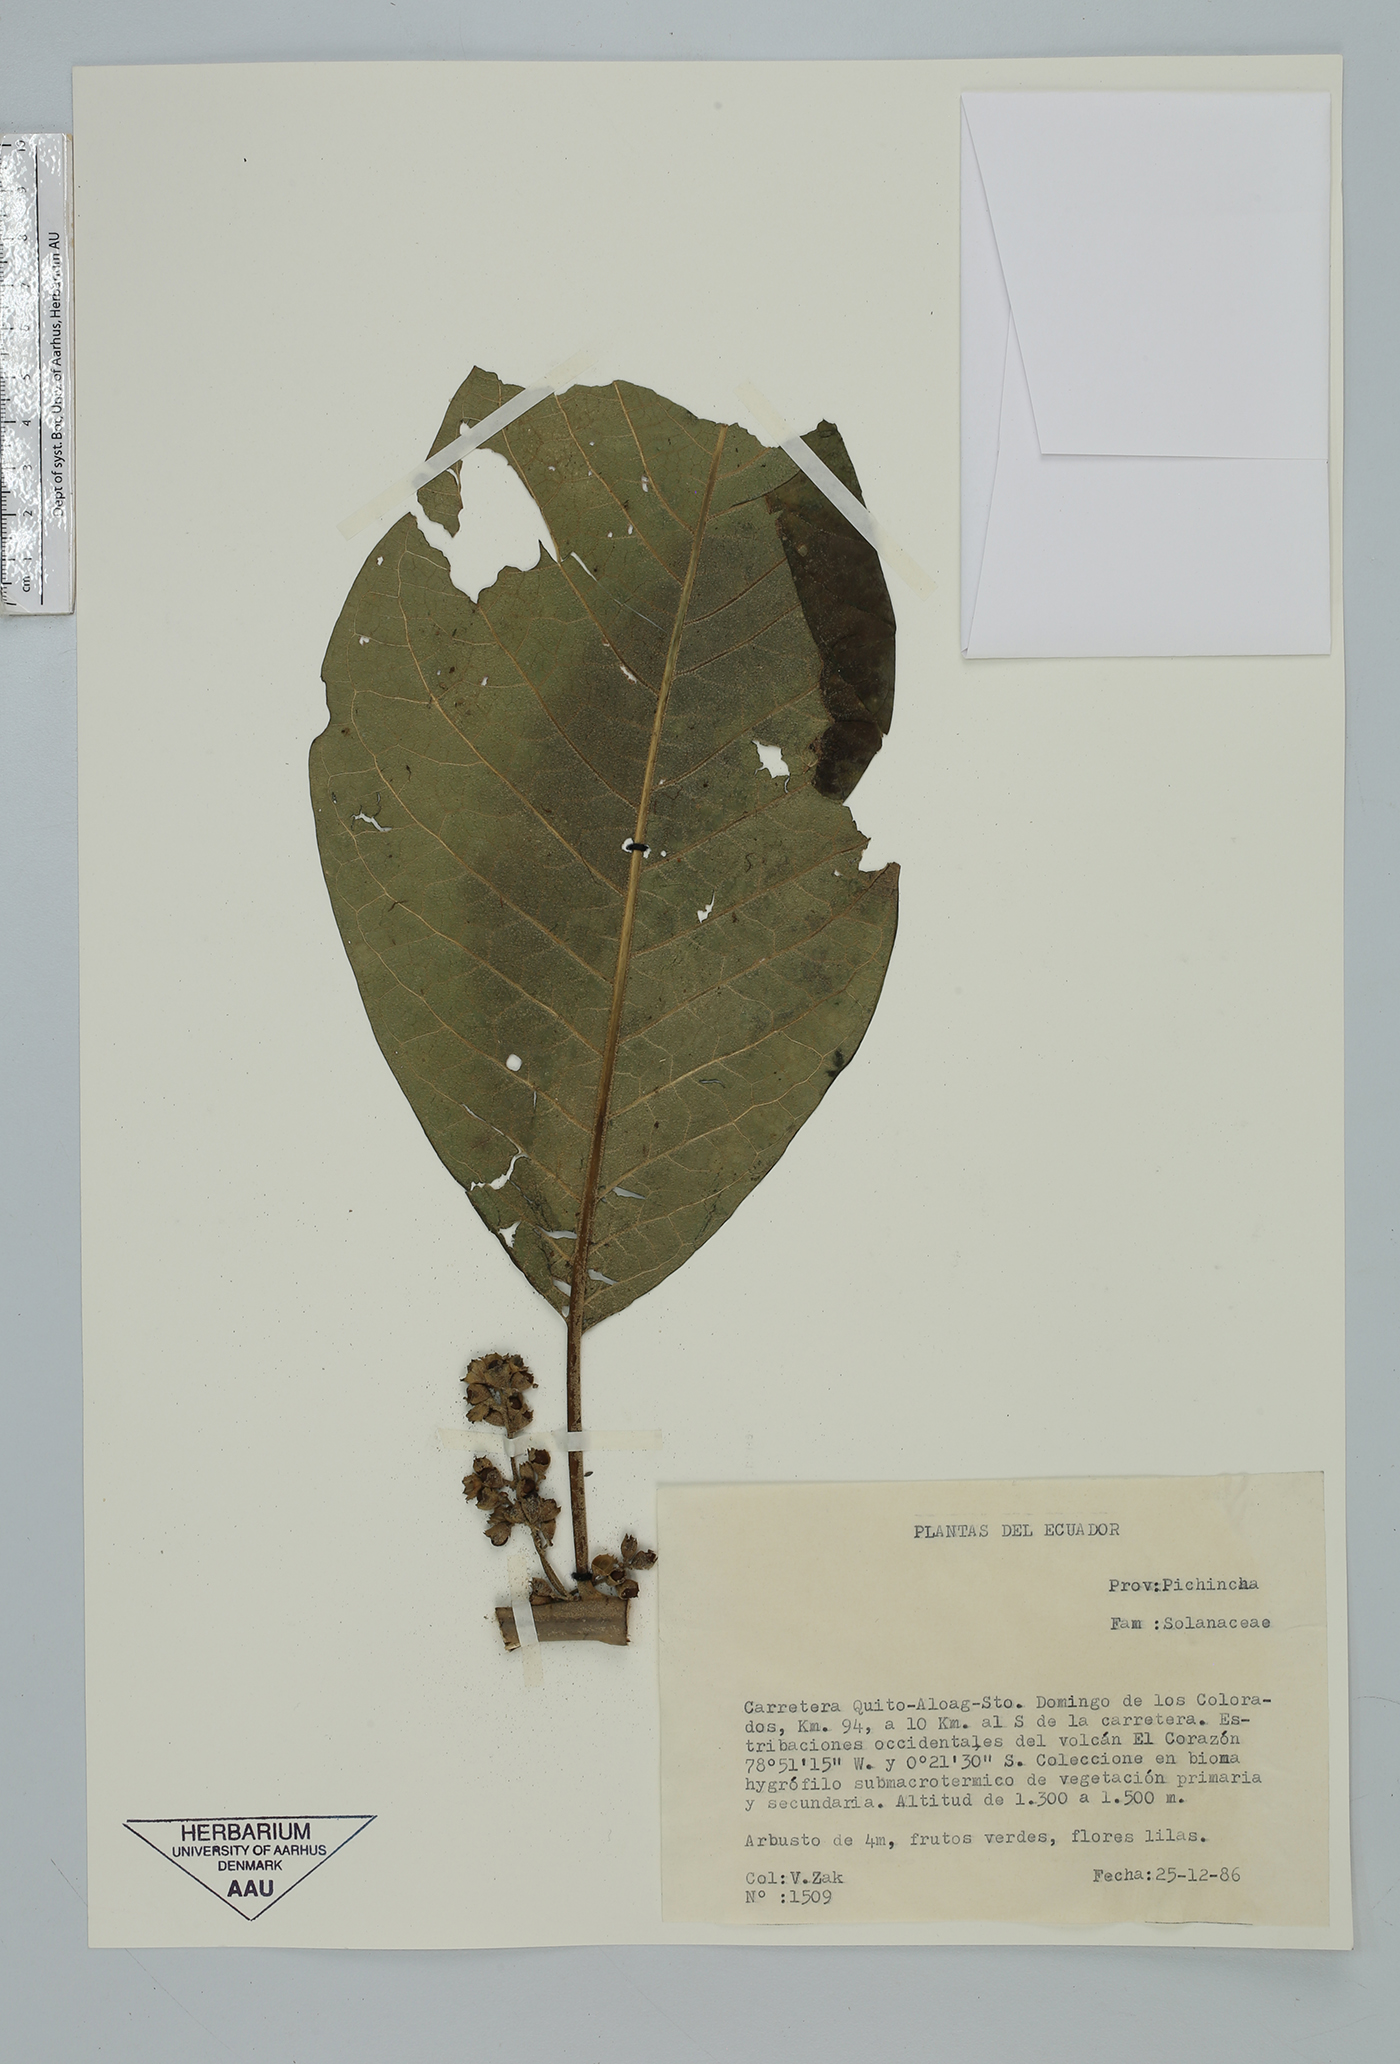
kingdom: Plantae
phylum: Tracheophyta
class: Magnoliopsida
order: Solanales
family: Solanaceae
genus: Cestrum
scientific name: Cestrum
